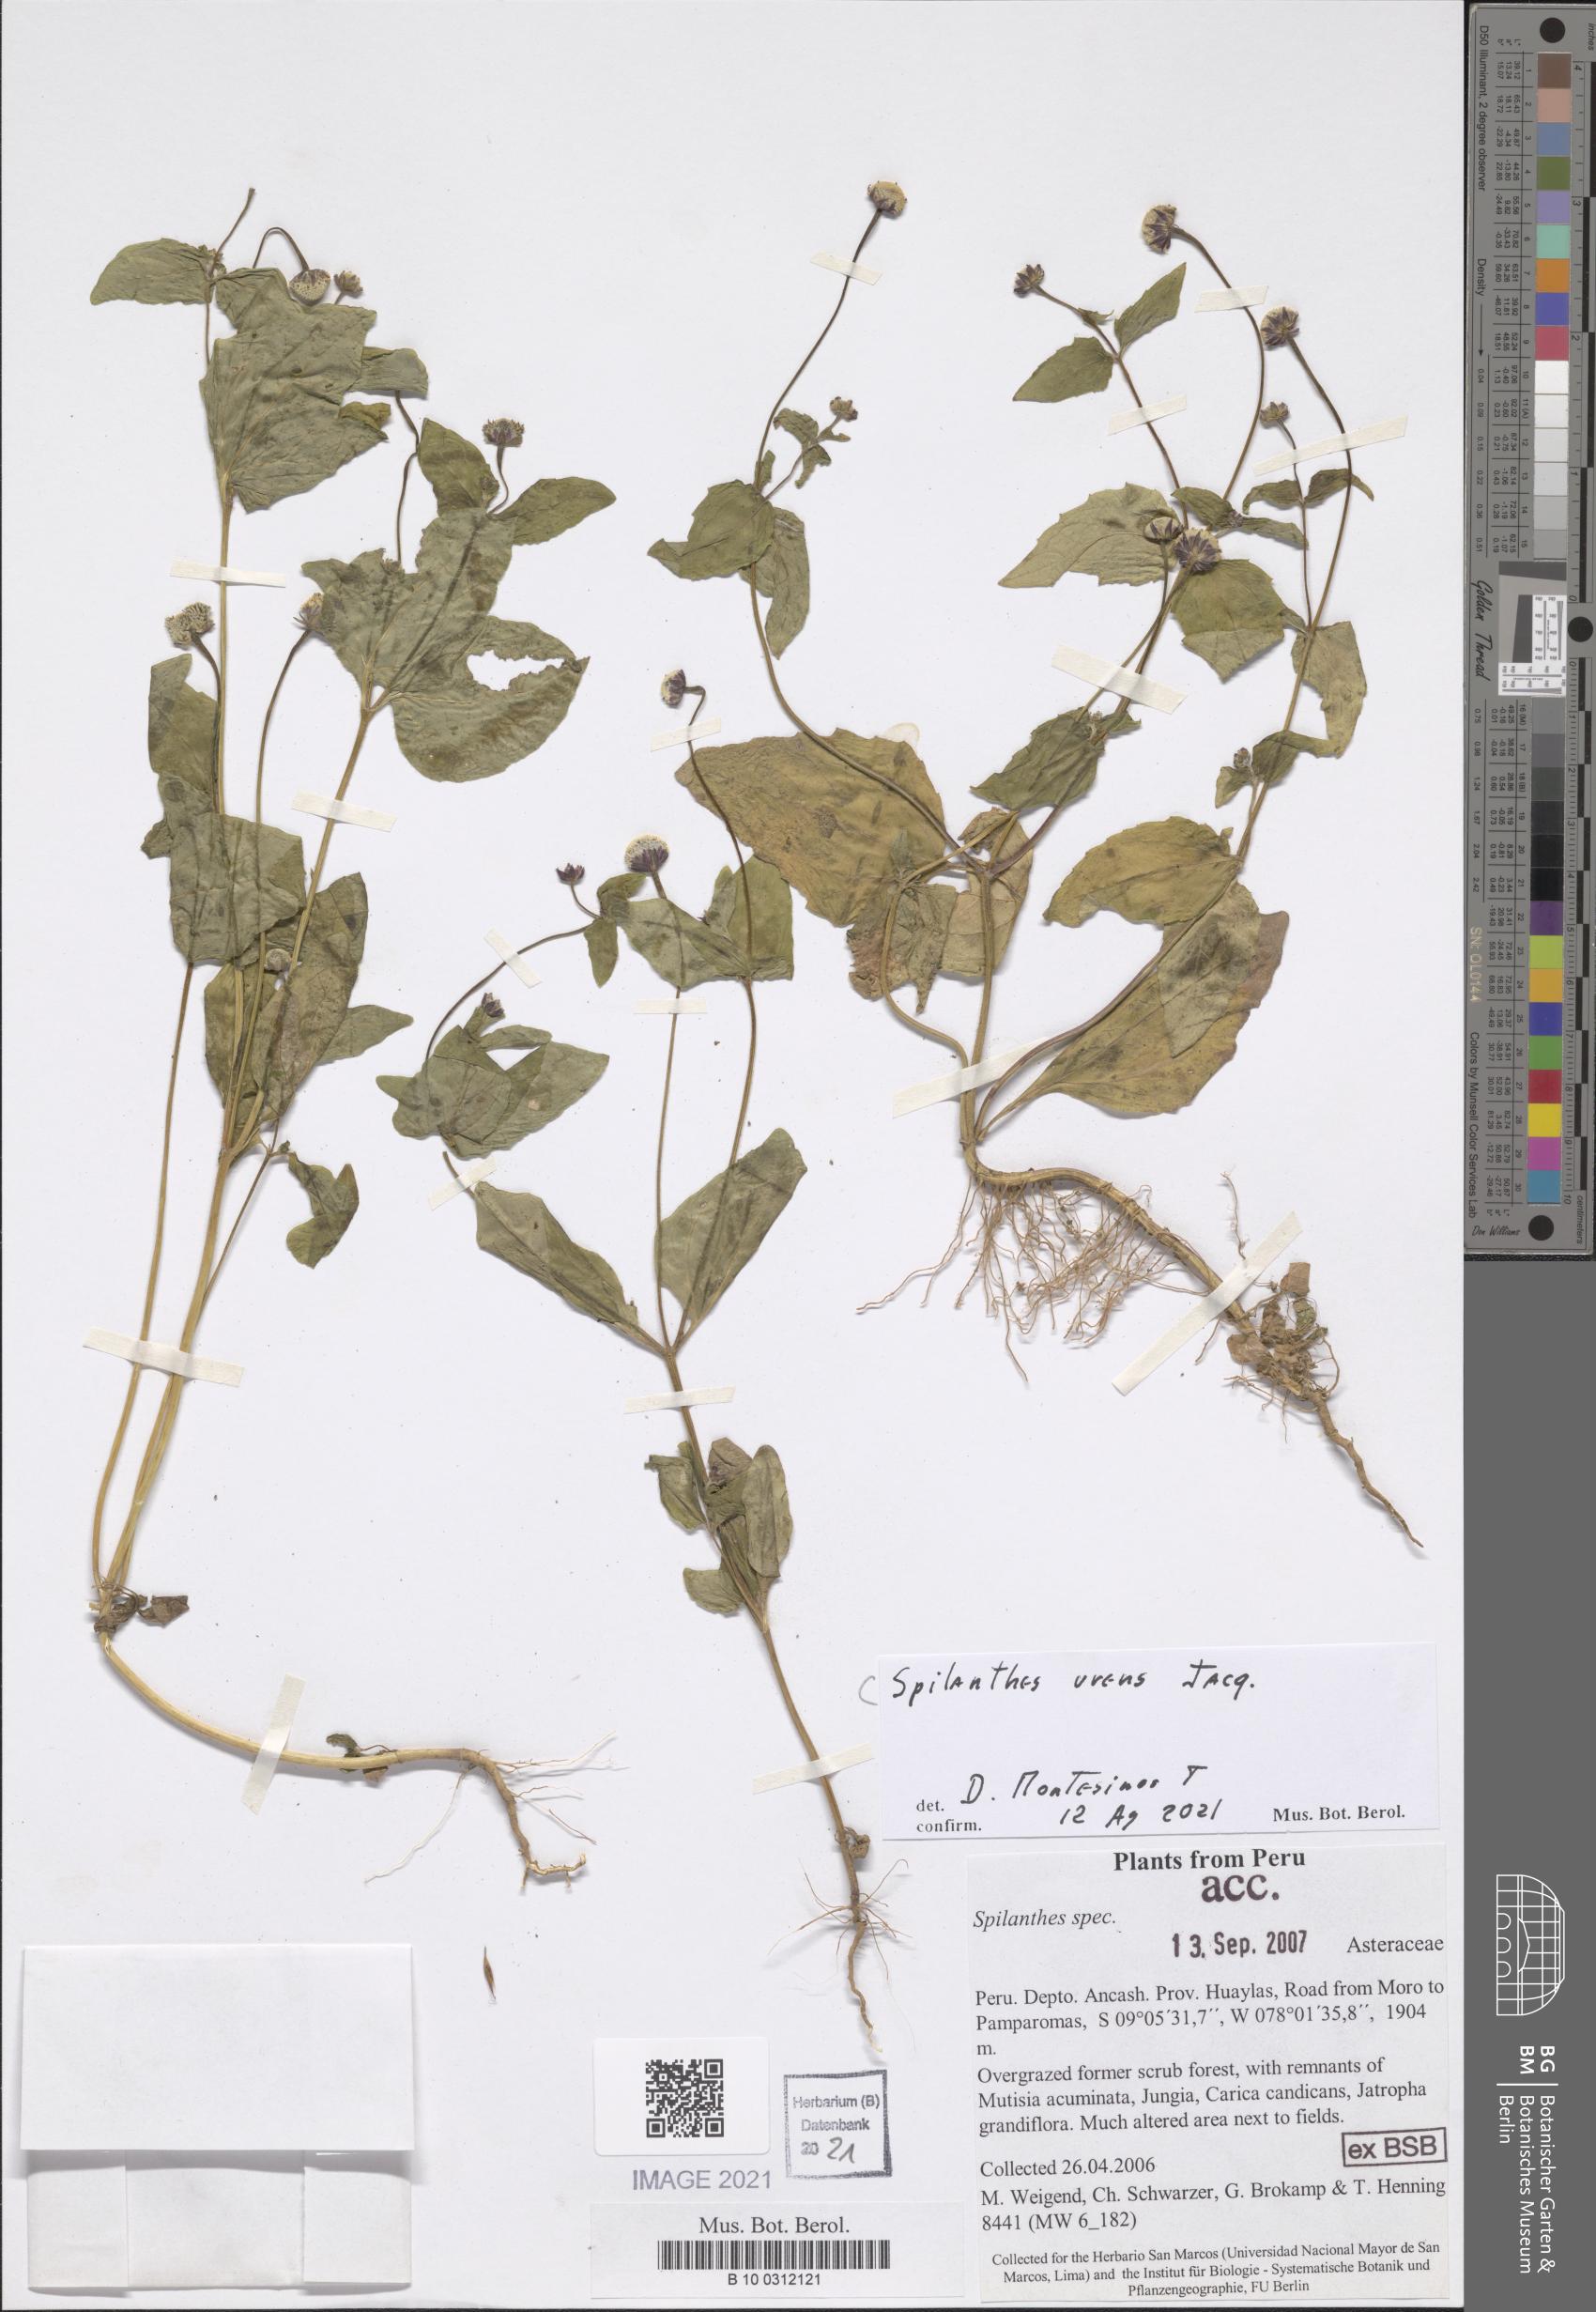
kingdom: Plantae
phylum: Tracheophyta
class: Magnoliopsida
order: Asterales
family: Asteraceae
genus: Spilanthes
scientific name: Spilanthes urens
